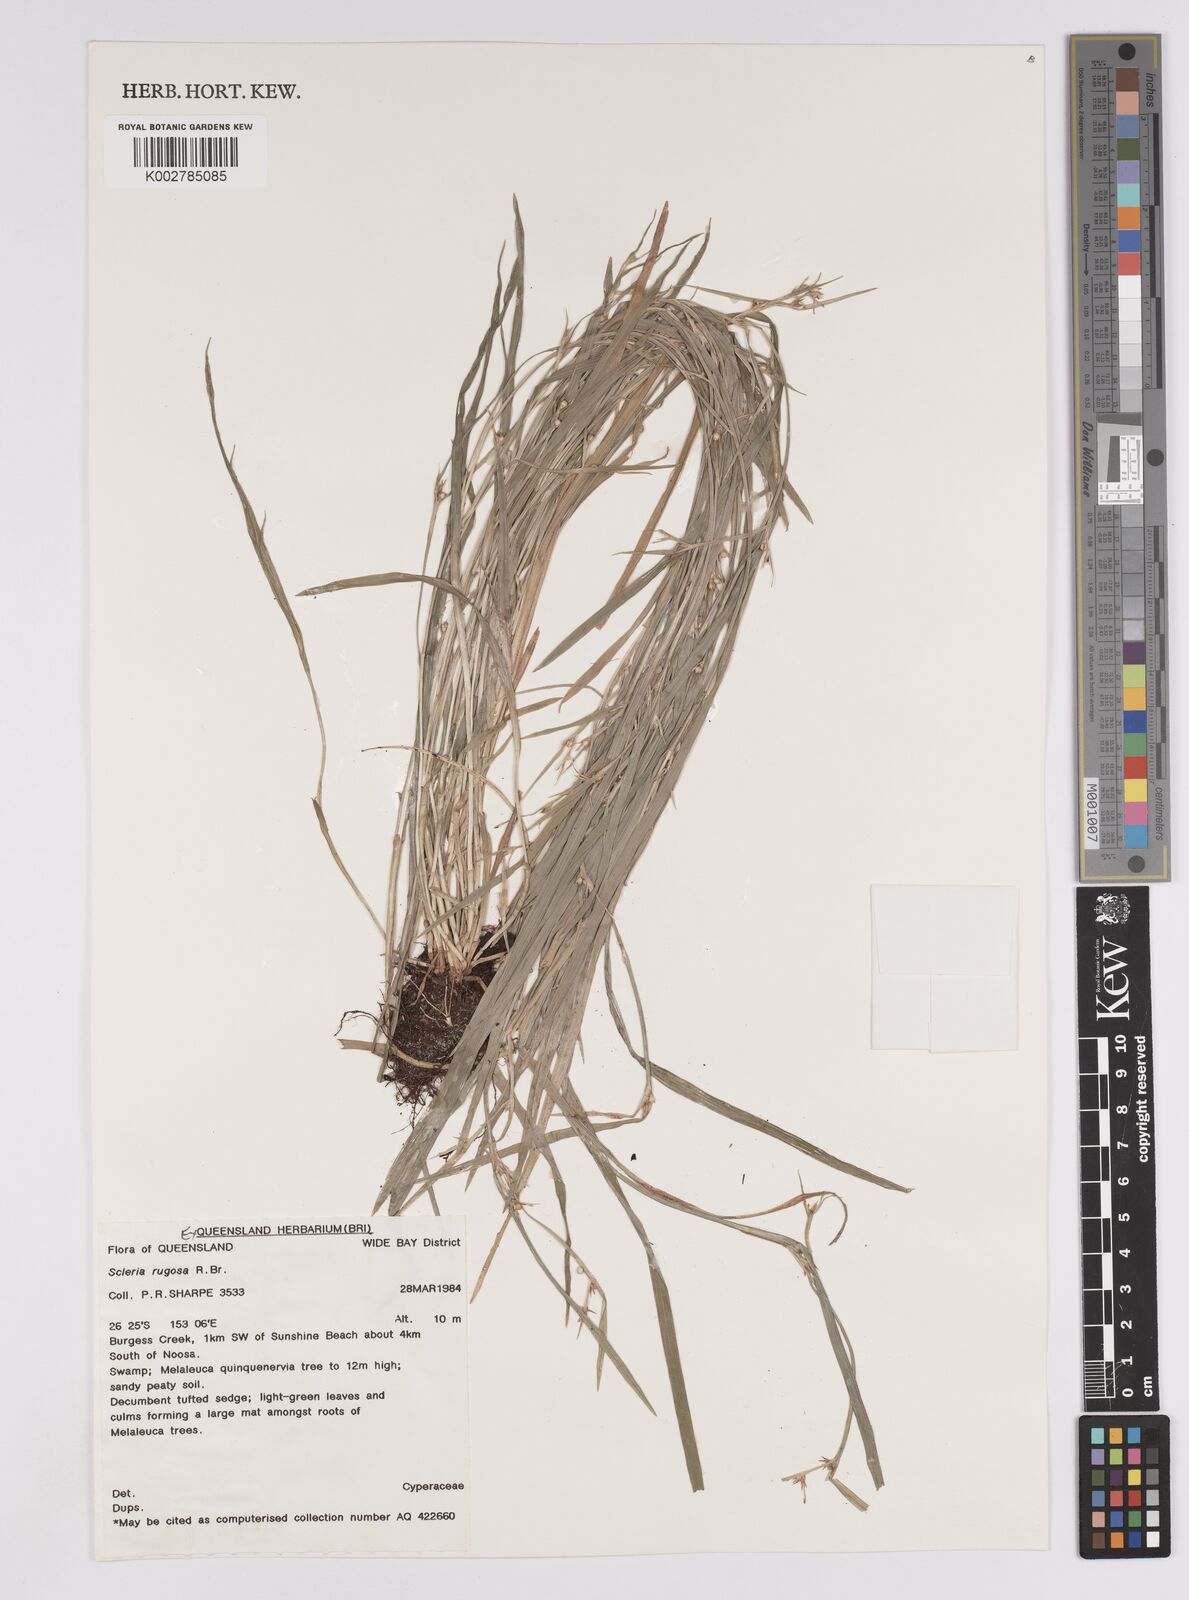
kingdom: Plantae
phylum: Tracheophyta
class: Liliopsida
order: Poales
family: Cyperaceae
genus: Scleria
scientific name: Scleria rugosa
